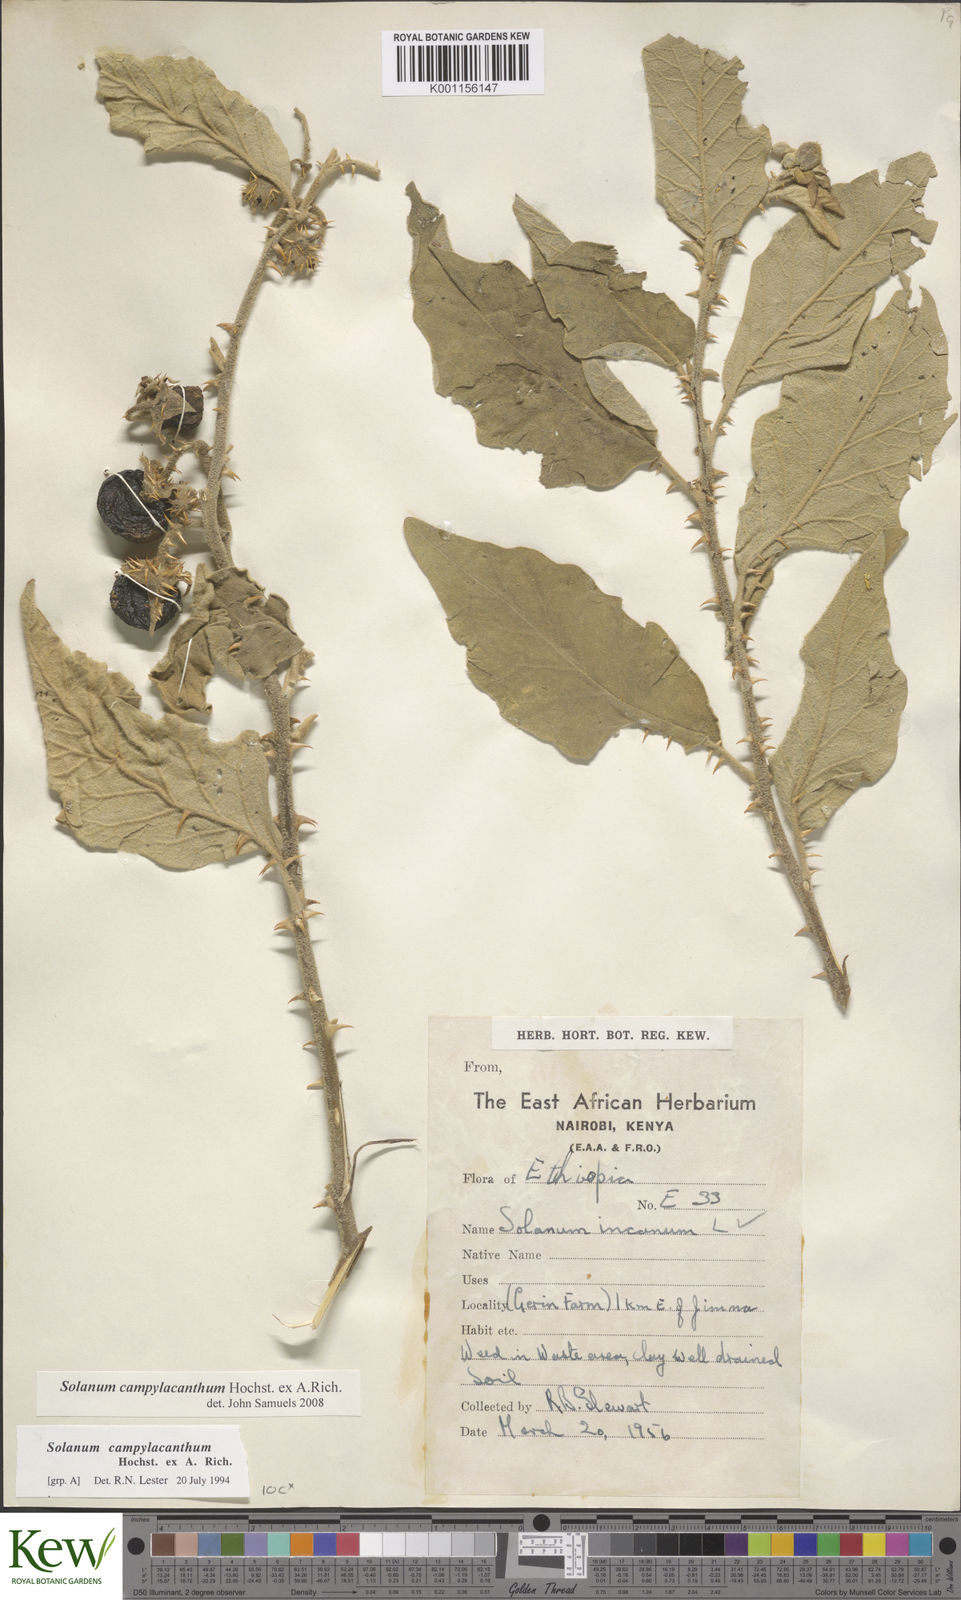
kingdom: Plantae
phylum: Tracheophyta
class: Magnoliopsida
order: Solanales
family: Solanaceae
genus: Solanum
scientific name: Solanum campylacanthum
